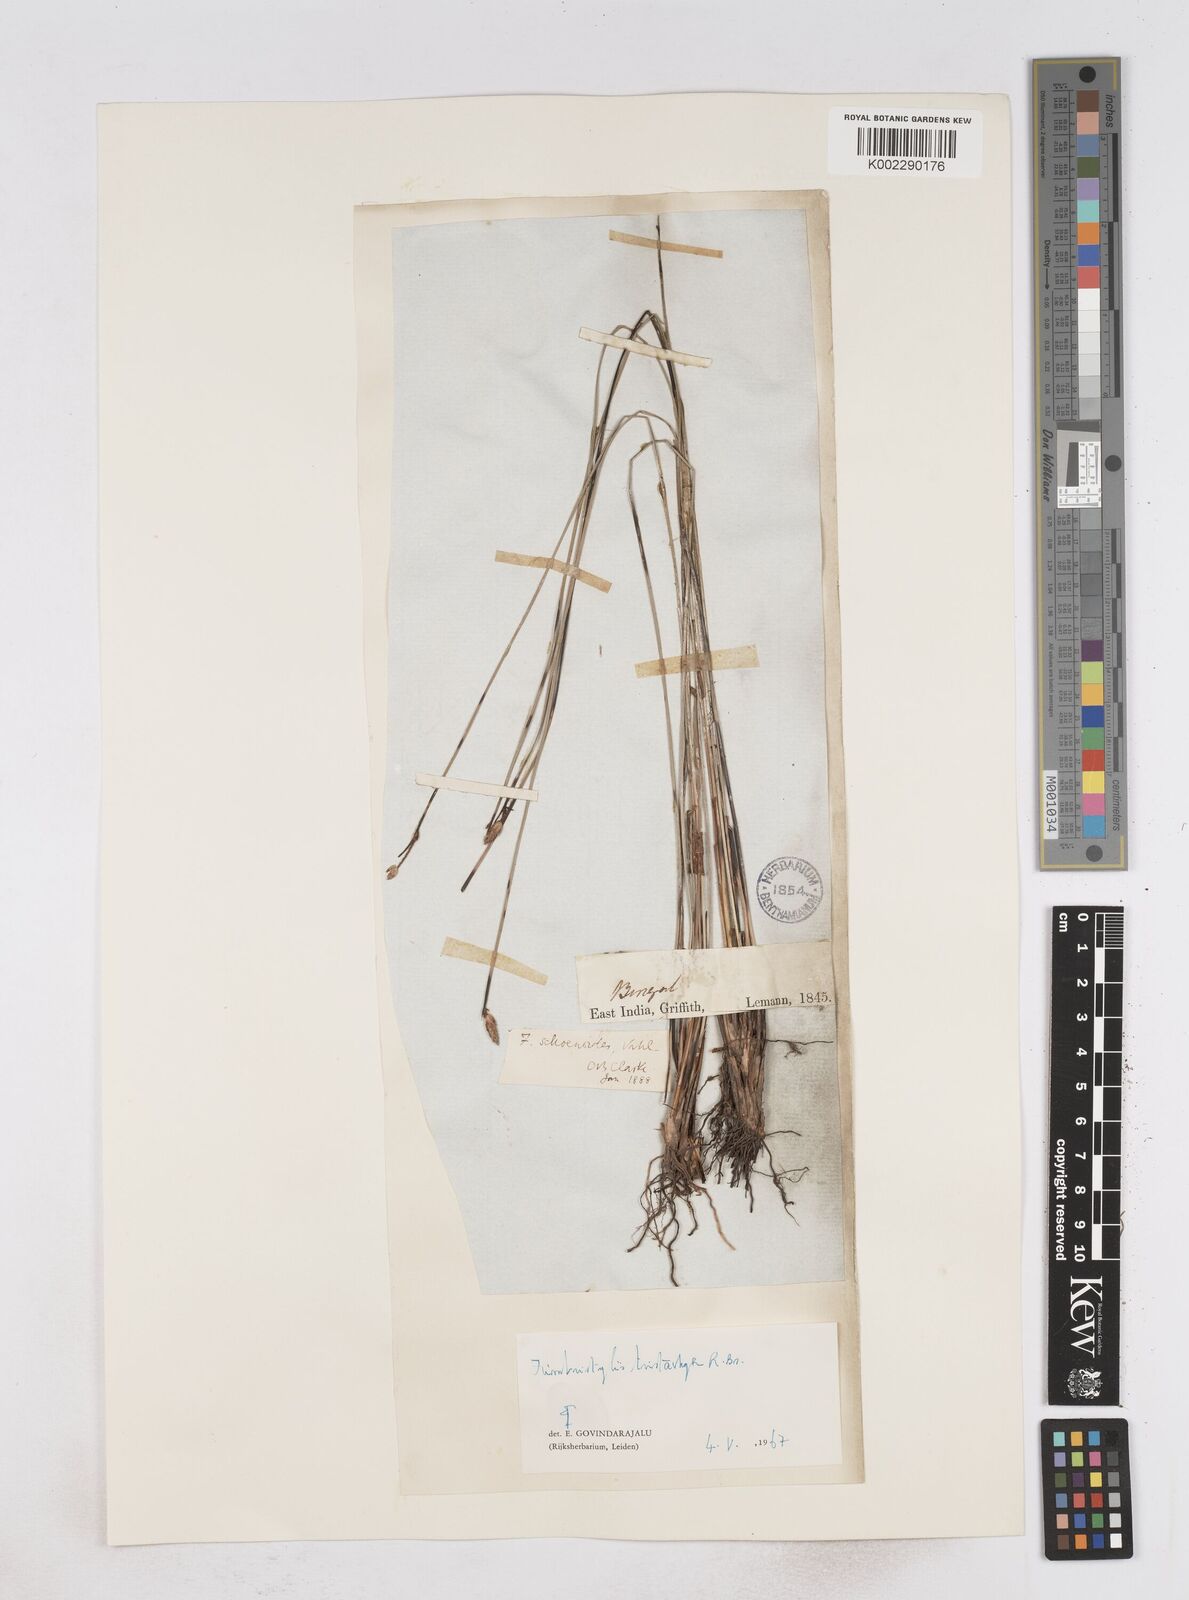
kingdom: Plantae
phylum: Tracheophyta
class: Liliopsida
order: Poales
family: Cyperaceae
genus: Fimbristylis
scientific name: Fimbristylis tristachya
